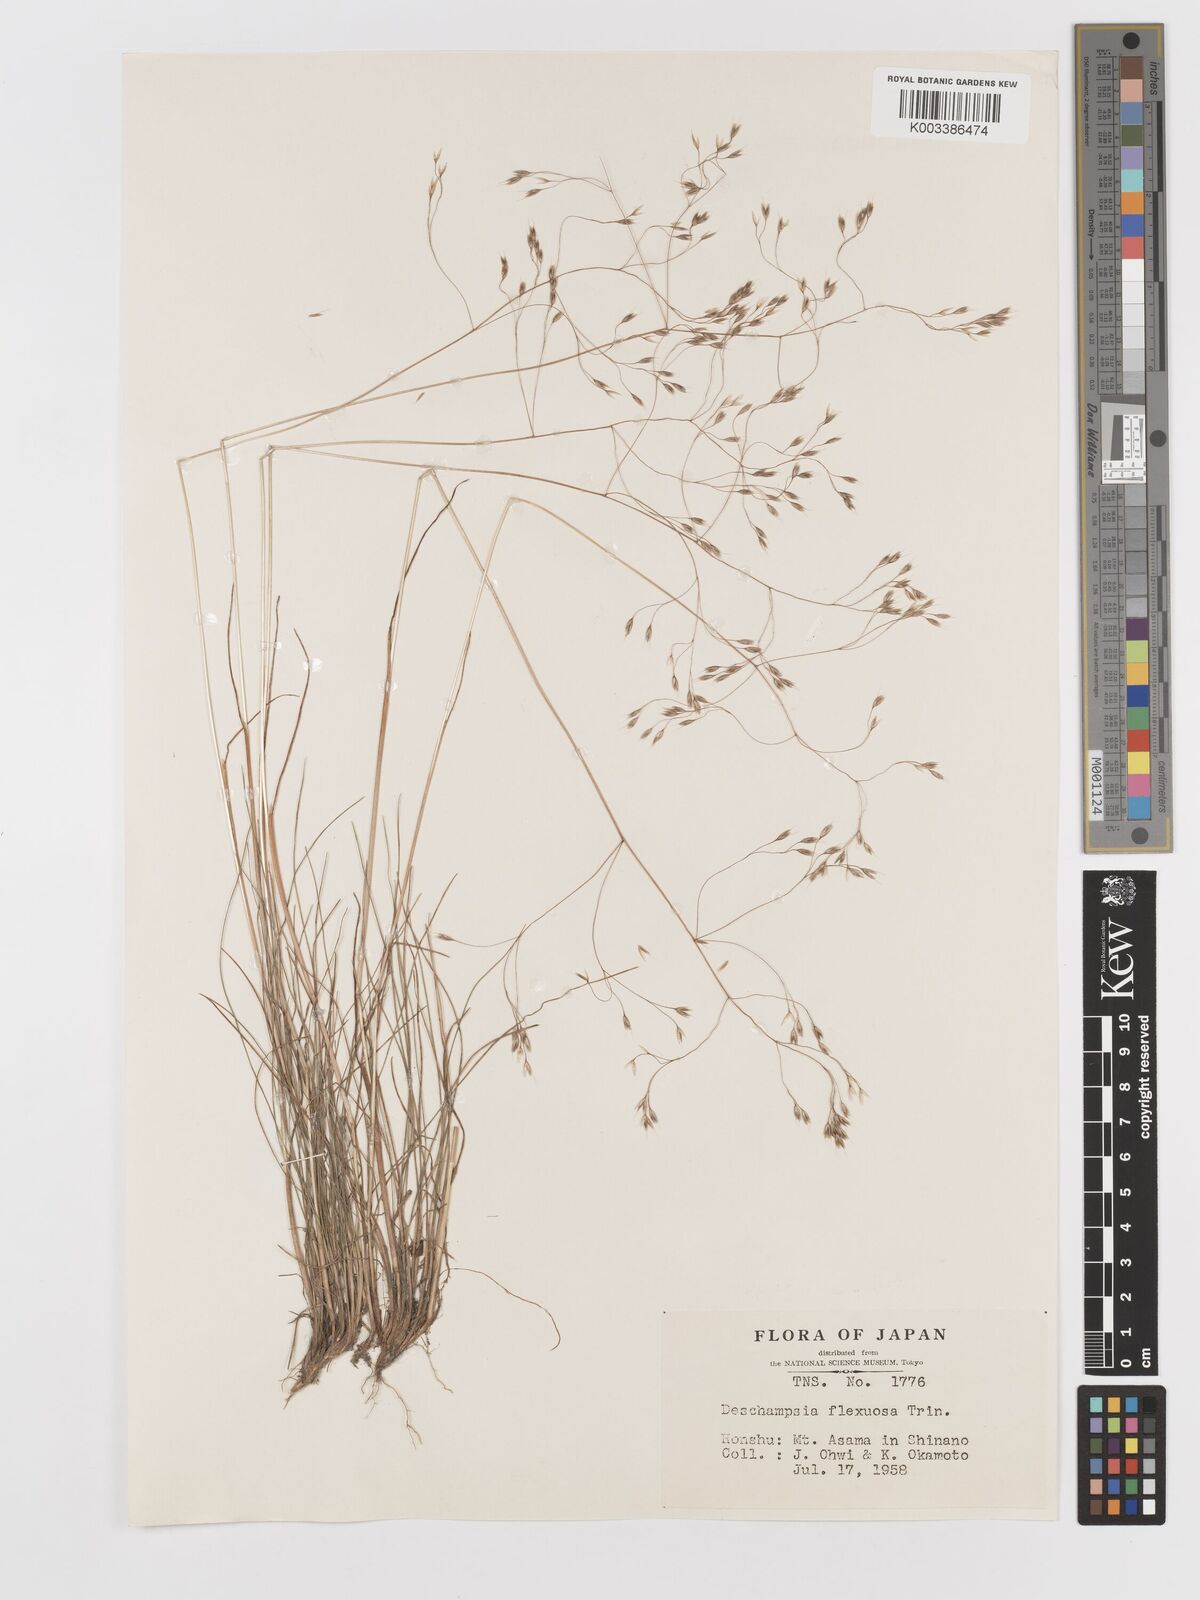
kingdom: Plantae
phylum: Tracheophyta
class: Liliopsida
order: Poales
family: Poaceae
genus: Avenella
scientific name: Avenella flexuosa
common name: Wavy hairgrass
